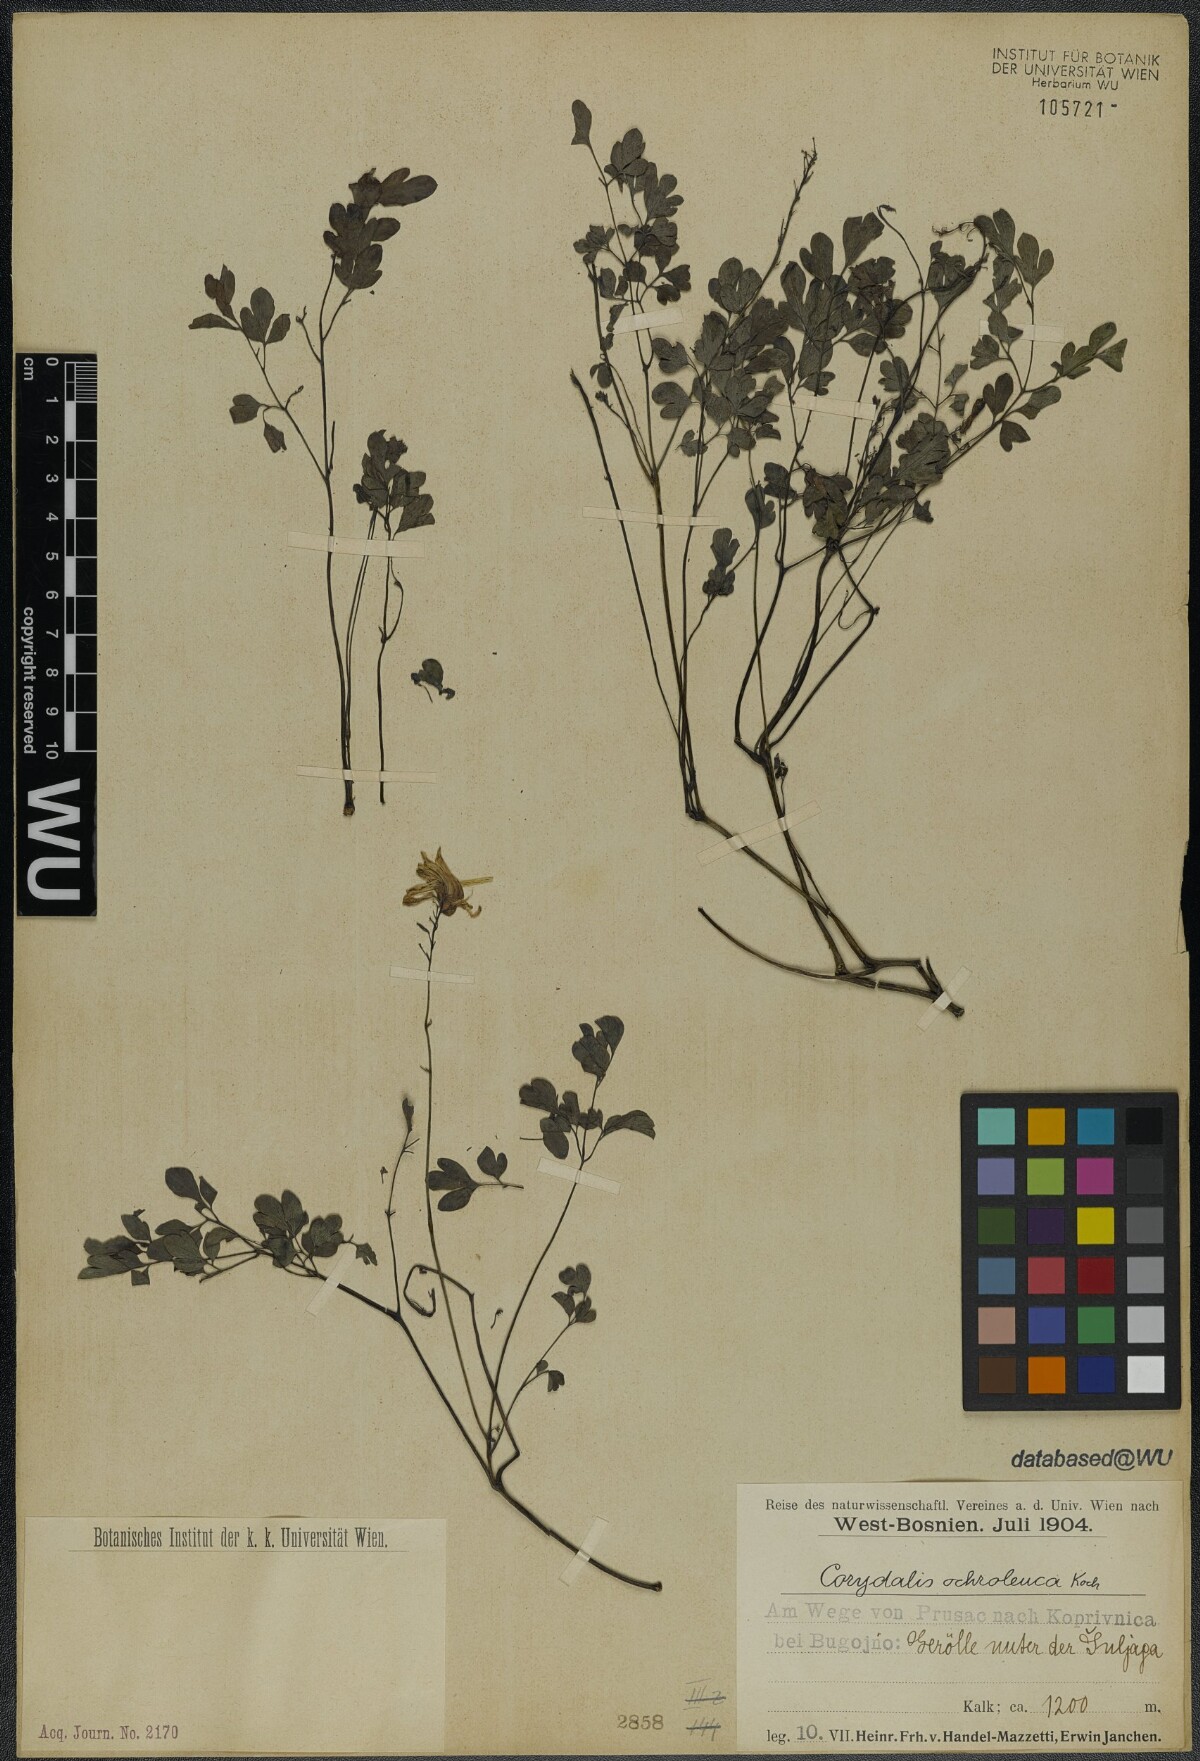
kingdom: Plantae
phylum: Tracheophyta
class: Magnoliopsida
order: Ranunculales
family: Papaveraceae
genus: Pseudofumaria
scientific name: Pseudofumaria alba
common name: Pale corydalis
